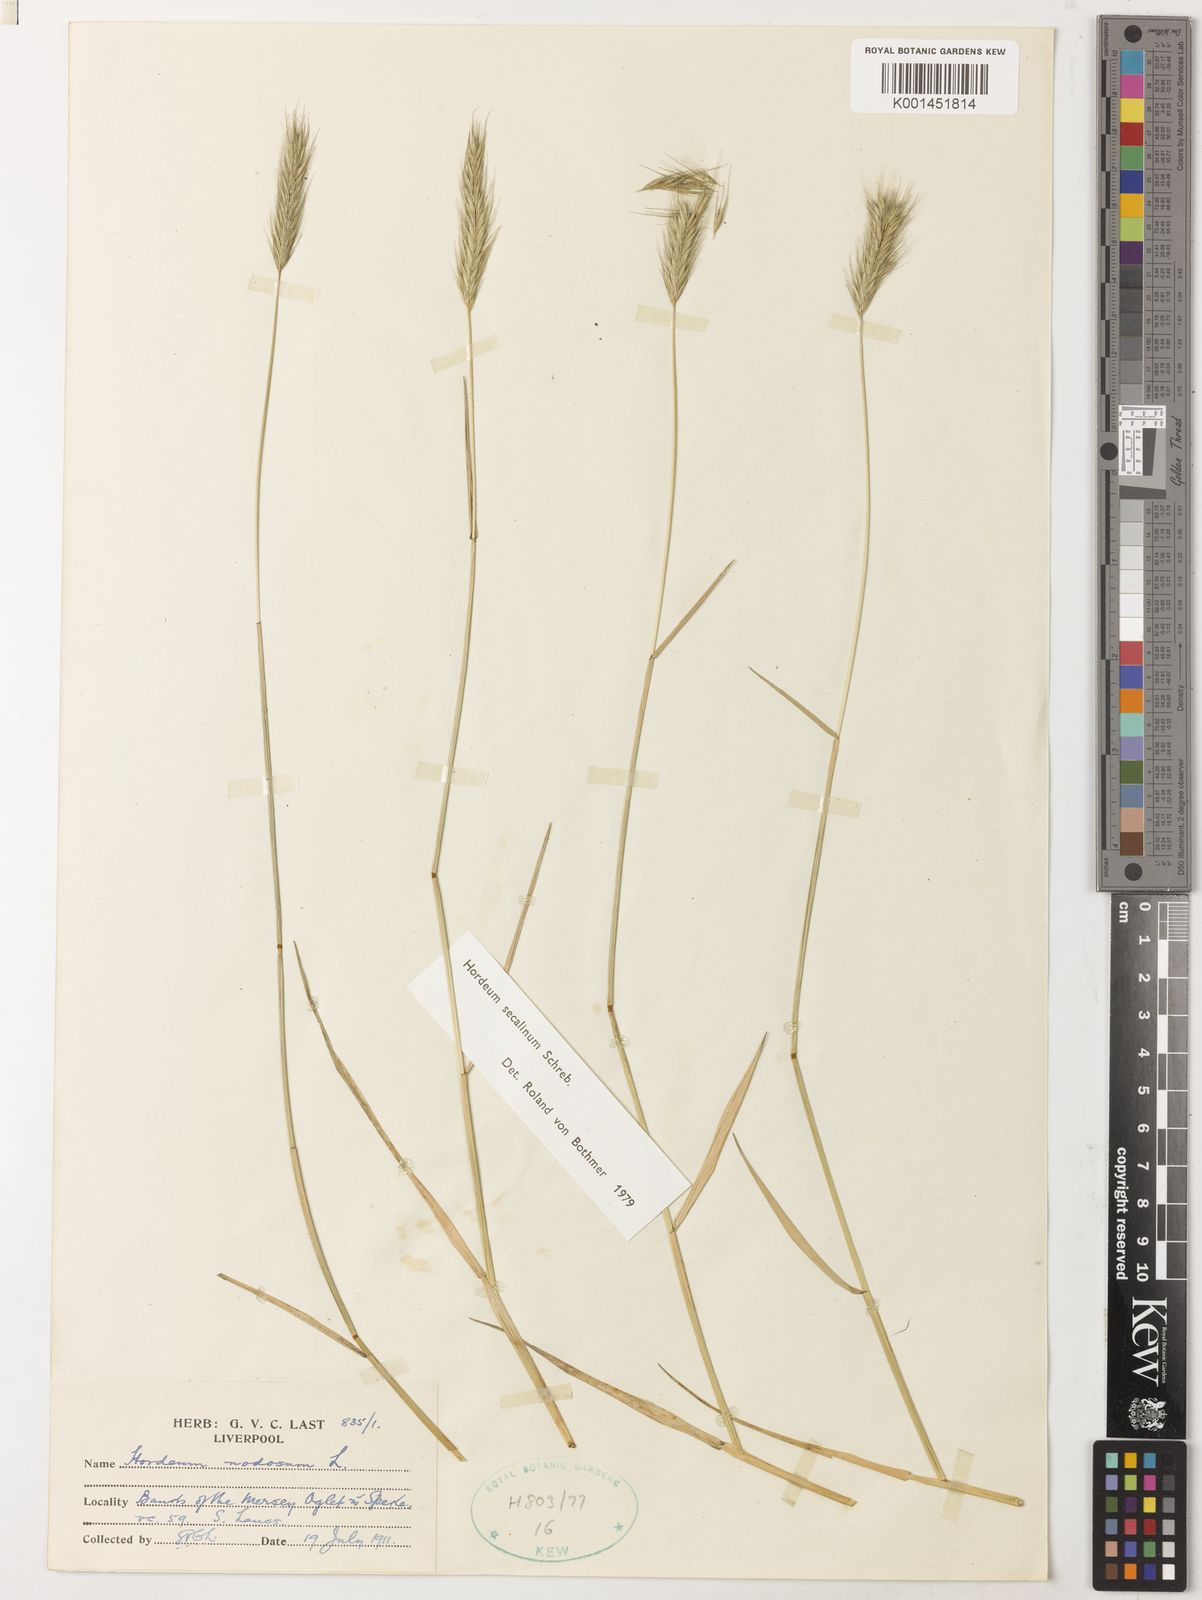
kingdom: Plantae
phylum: Tracheophyta
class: Liliopsida
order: Poales
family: Poaceae
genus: Hordeum
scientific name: Hordeum secalinum
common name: Meadow barley
